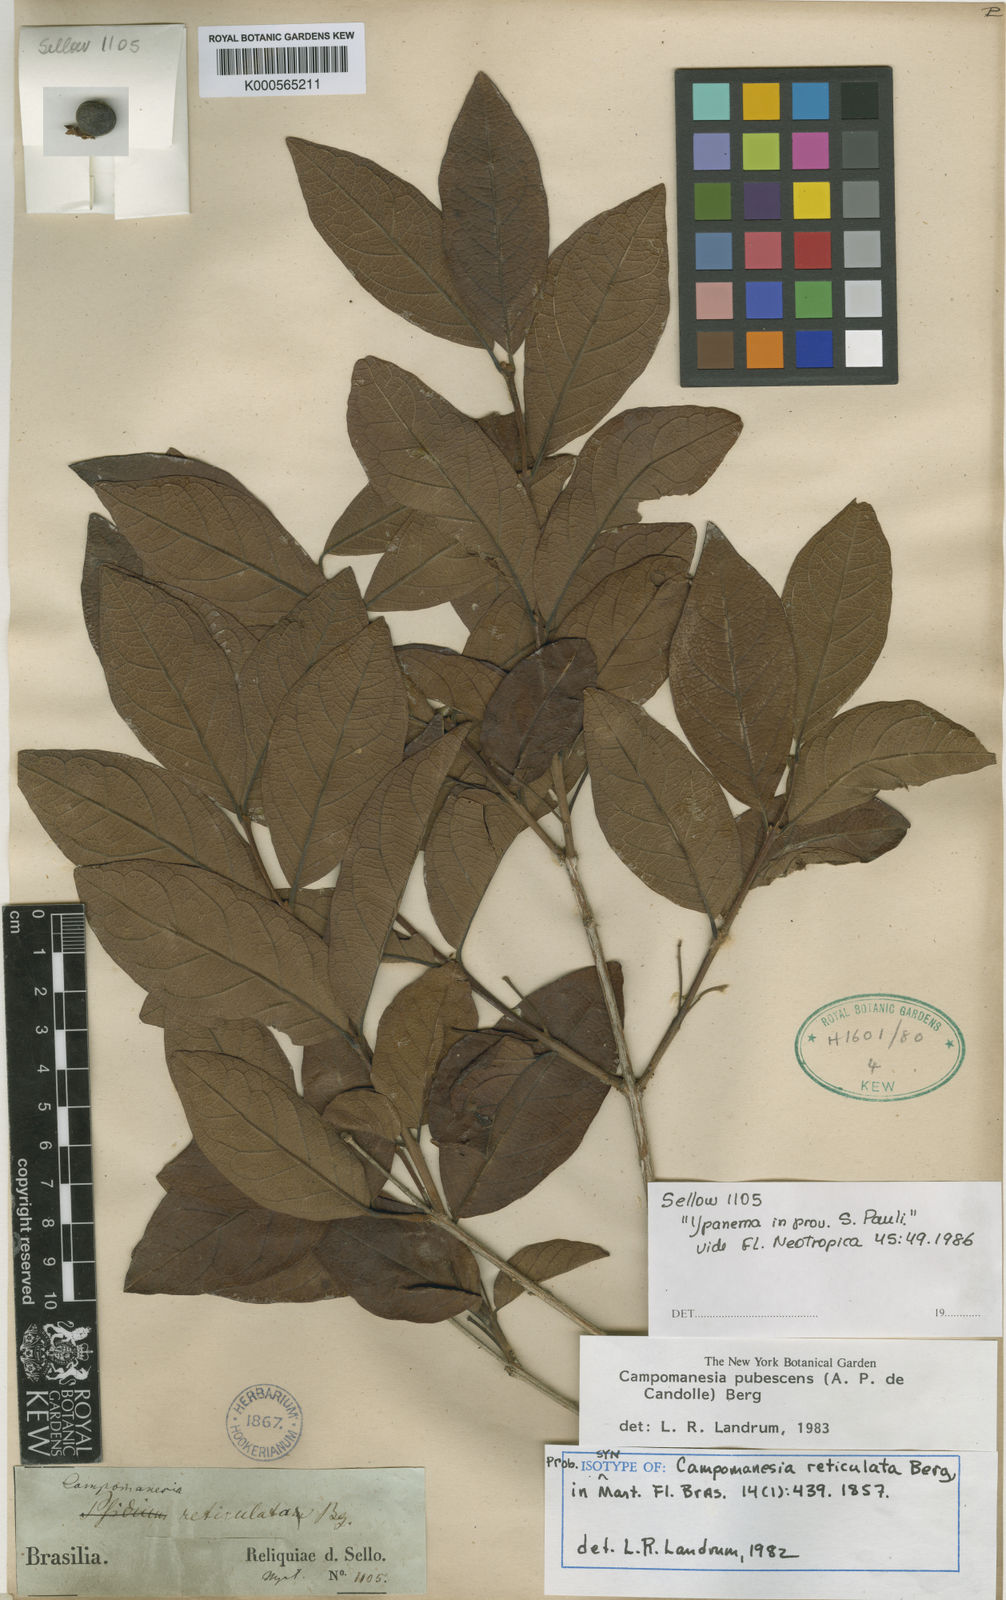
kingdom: Plantae
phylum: Tracheophyta
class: Magnoliopsida
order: Myrtales
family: Myrtaceae
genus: Campomanesia
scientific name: Campomanesia pubescens
